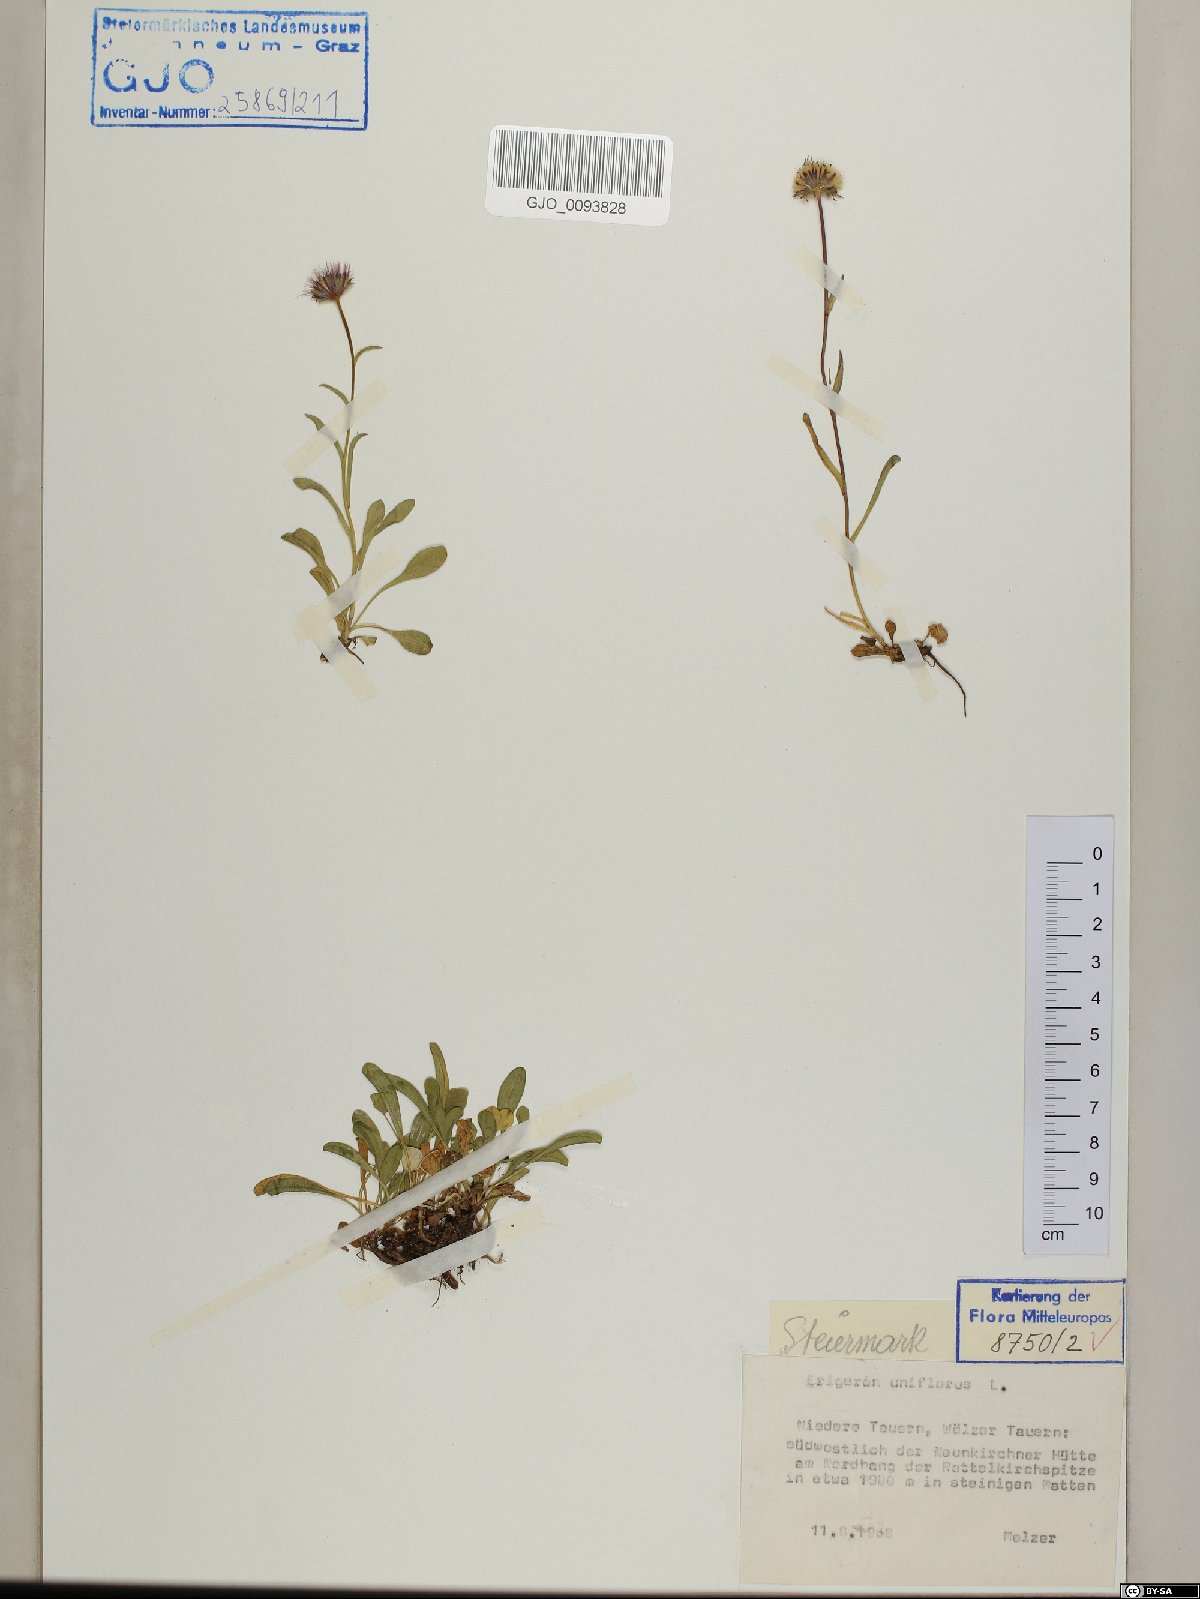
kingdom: Plantae
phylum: Tracheophyta
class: Magnoliopsida
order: Asterales
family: Asteraceae
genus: Erigeron
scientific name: Erigeron uniflorus
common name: Northern daisy
